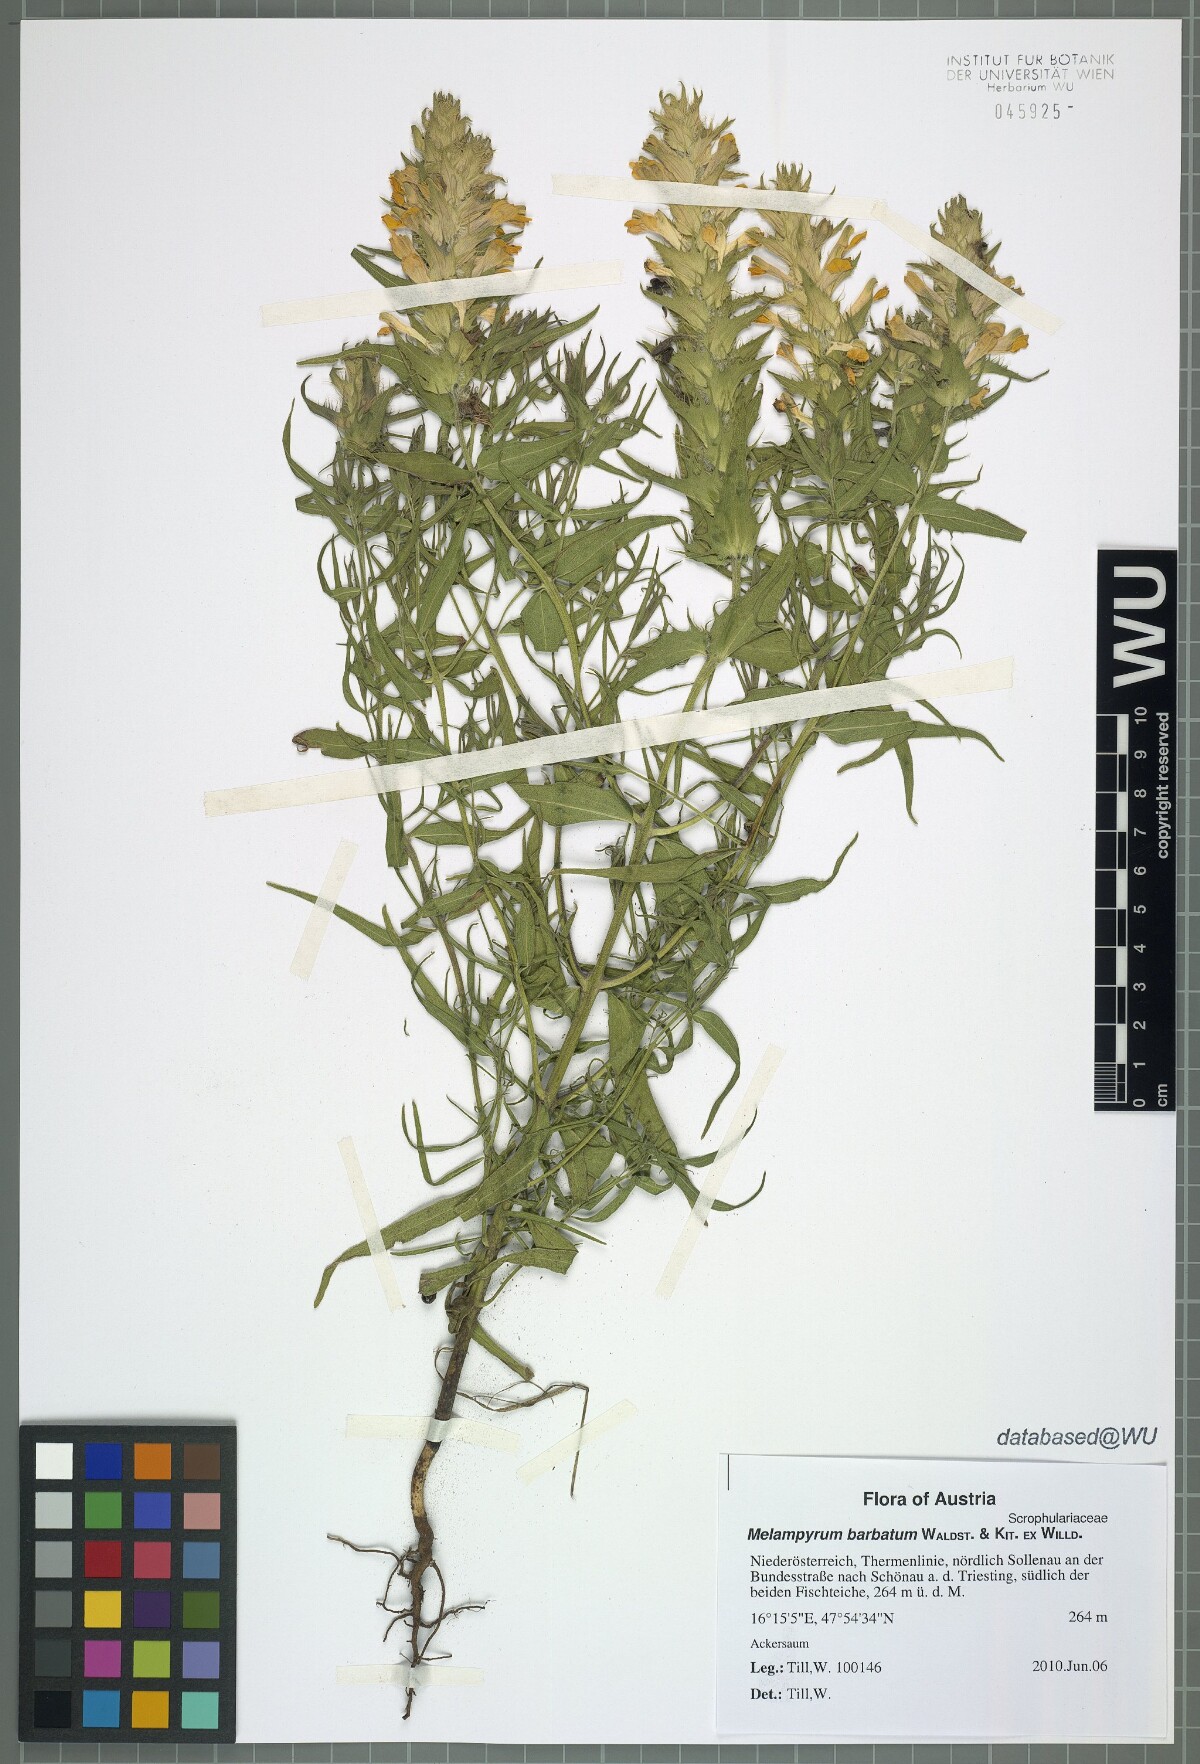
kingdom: Plantae
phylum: Tracheophyta
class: Magnoliopsida
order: Lamiales
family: Orobanchaceae
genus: Melampyrum
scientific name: Melampyrum barbatum
